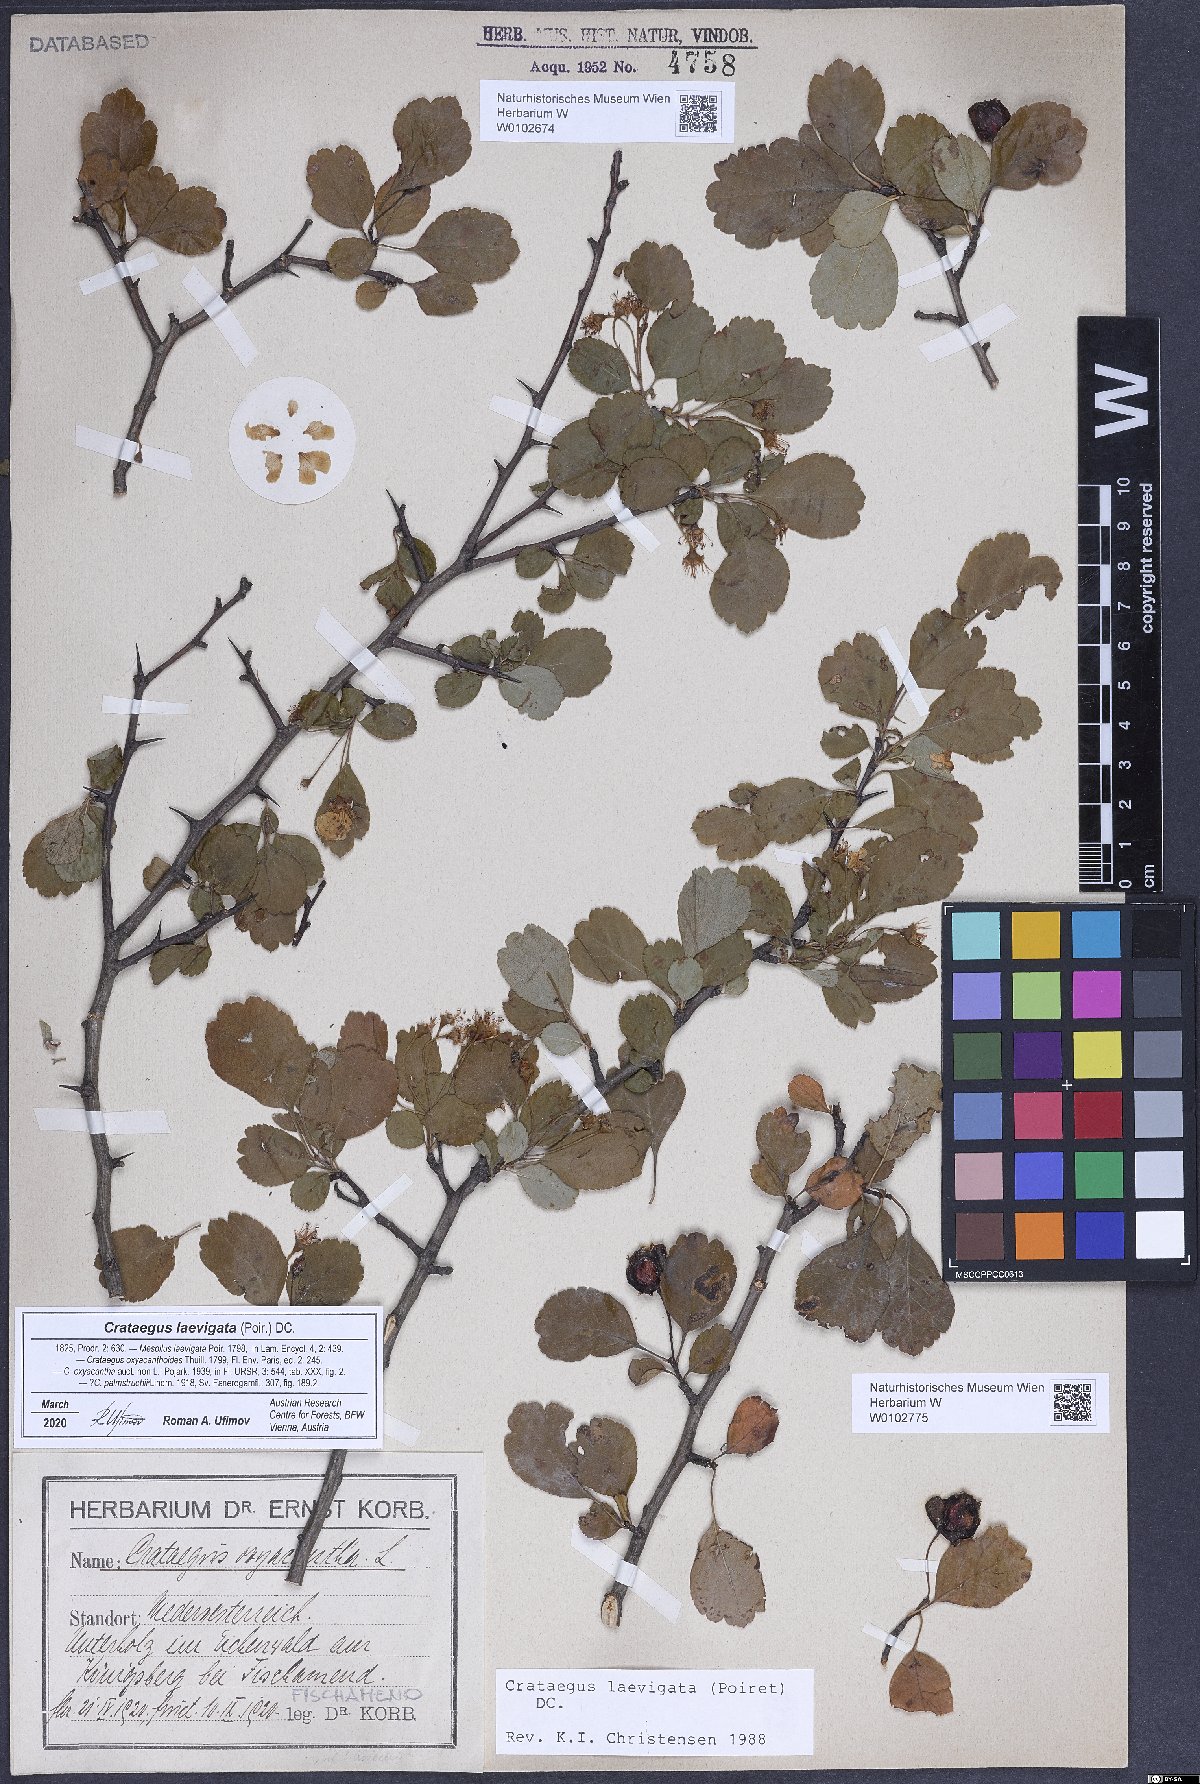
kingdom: Plantae
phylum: Tracheophyta
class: Magnoliopsida
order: Rosales
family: Rosaceae
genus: Crataegus
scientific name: Crataegus laevigata
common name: Midland hawthorn
